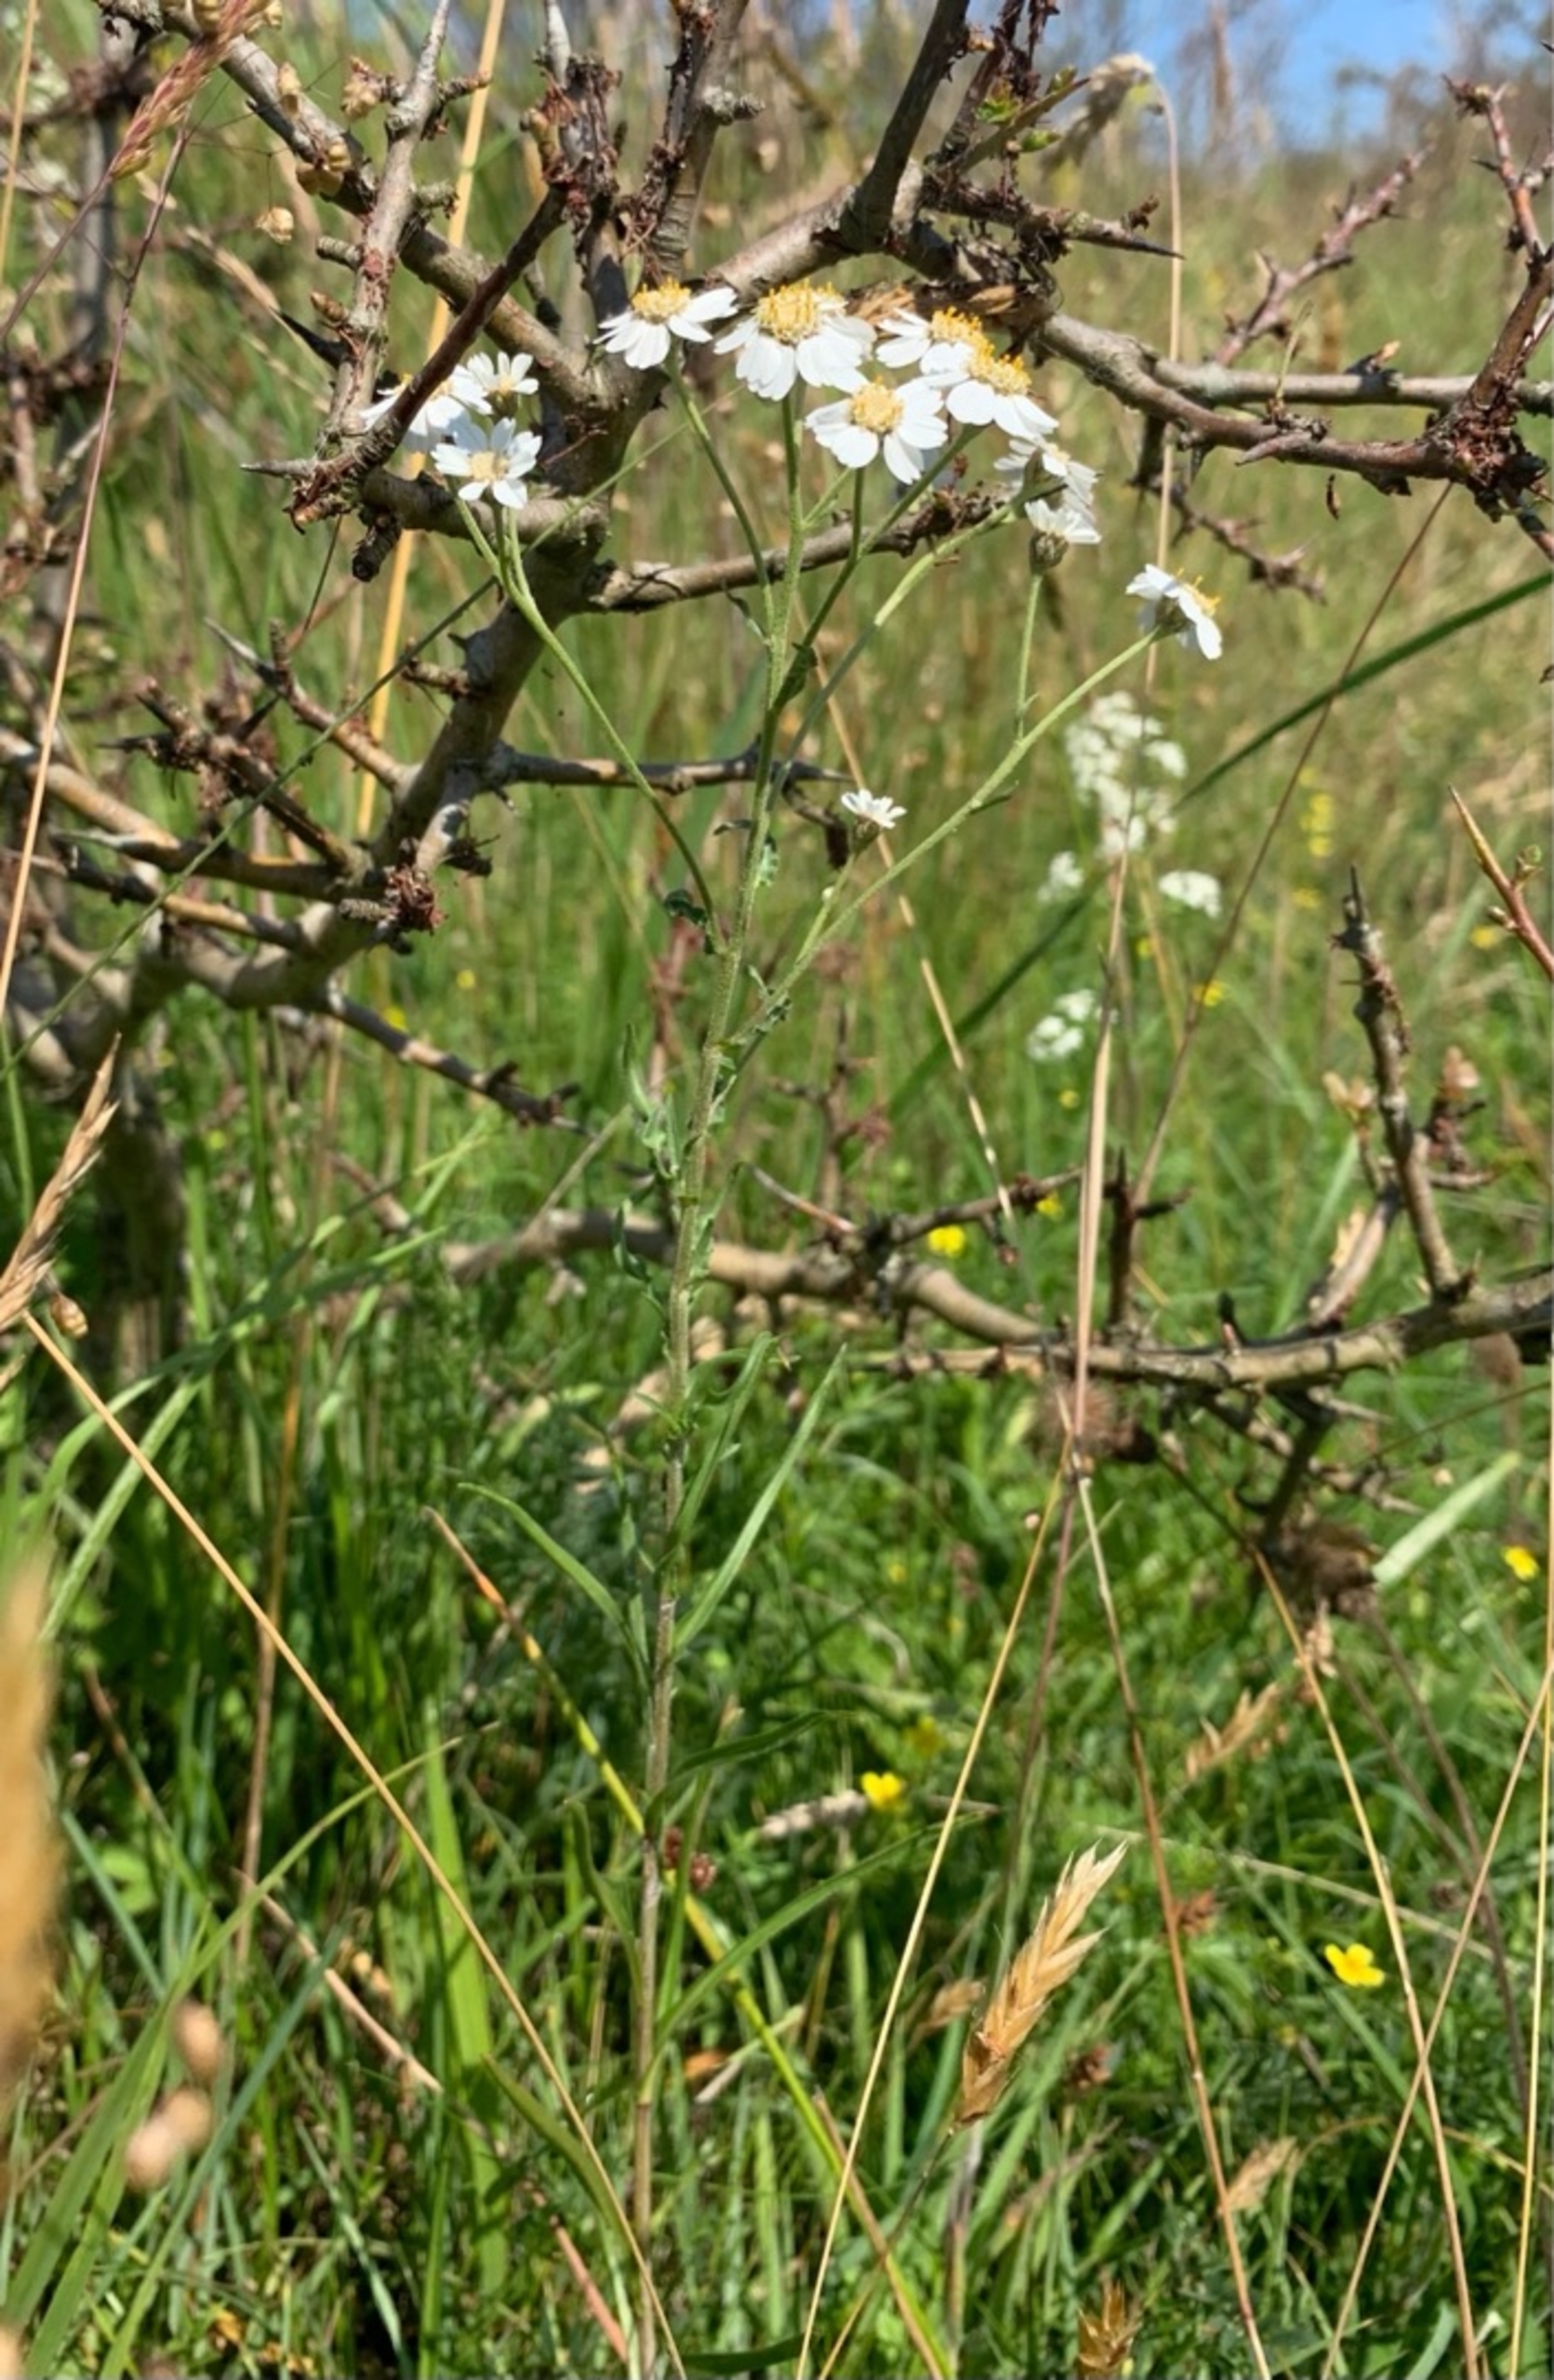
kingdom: Plantae
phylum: Tracheophyta
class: Magnoliopsida
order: Asterales
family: Asteraceae
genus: Achillea
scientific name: Achillea ptarmica
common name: Nyse-røllike
